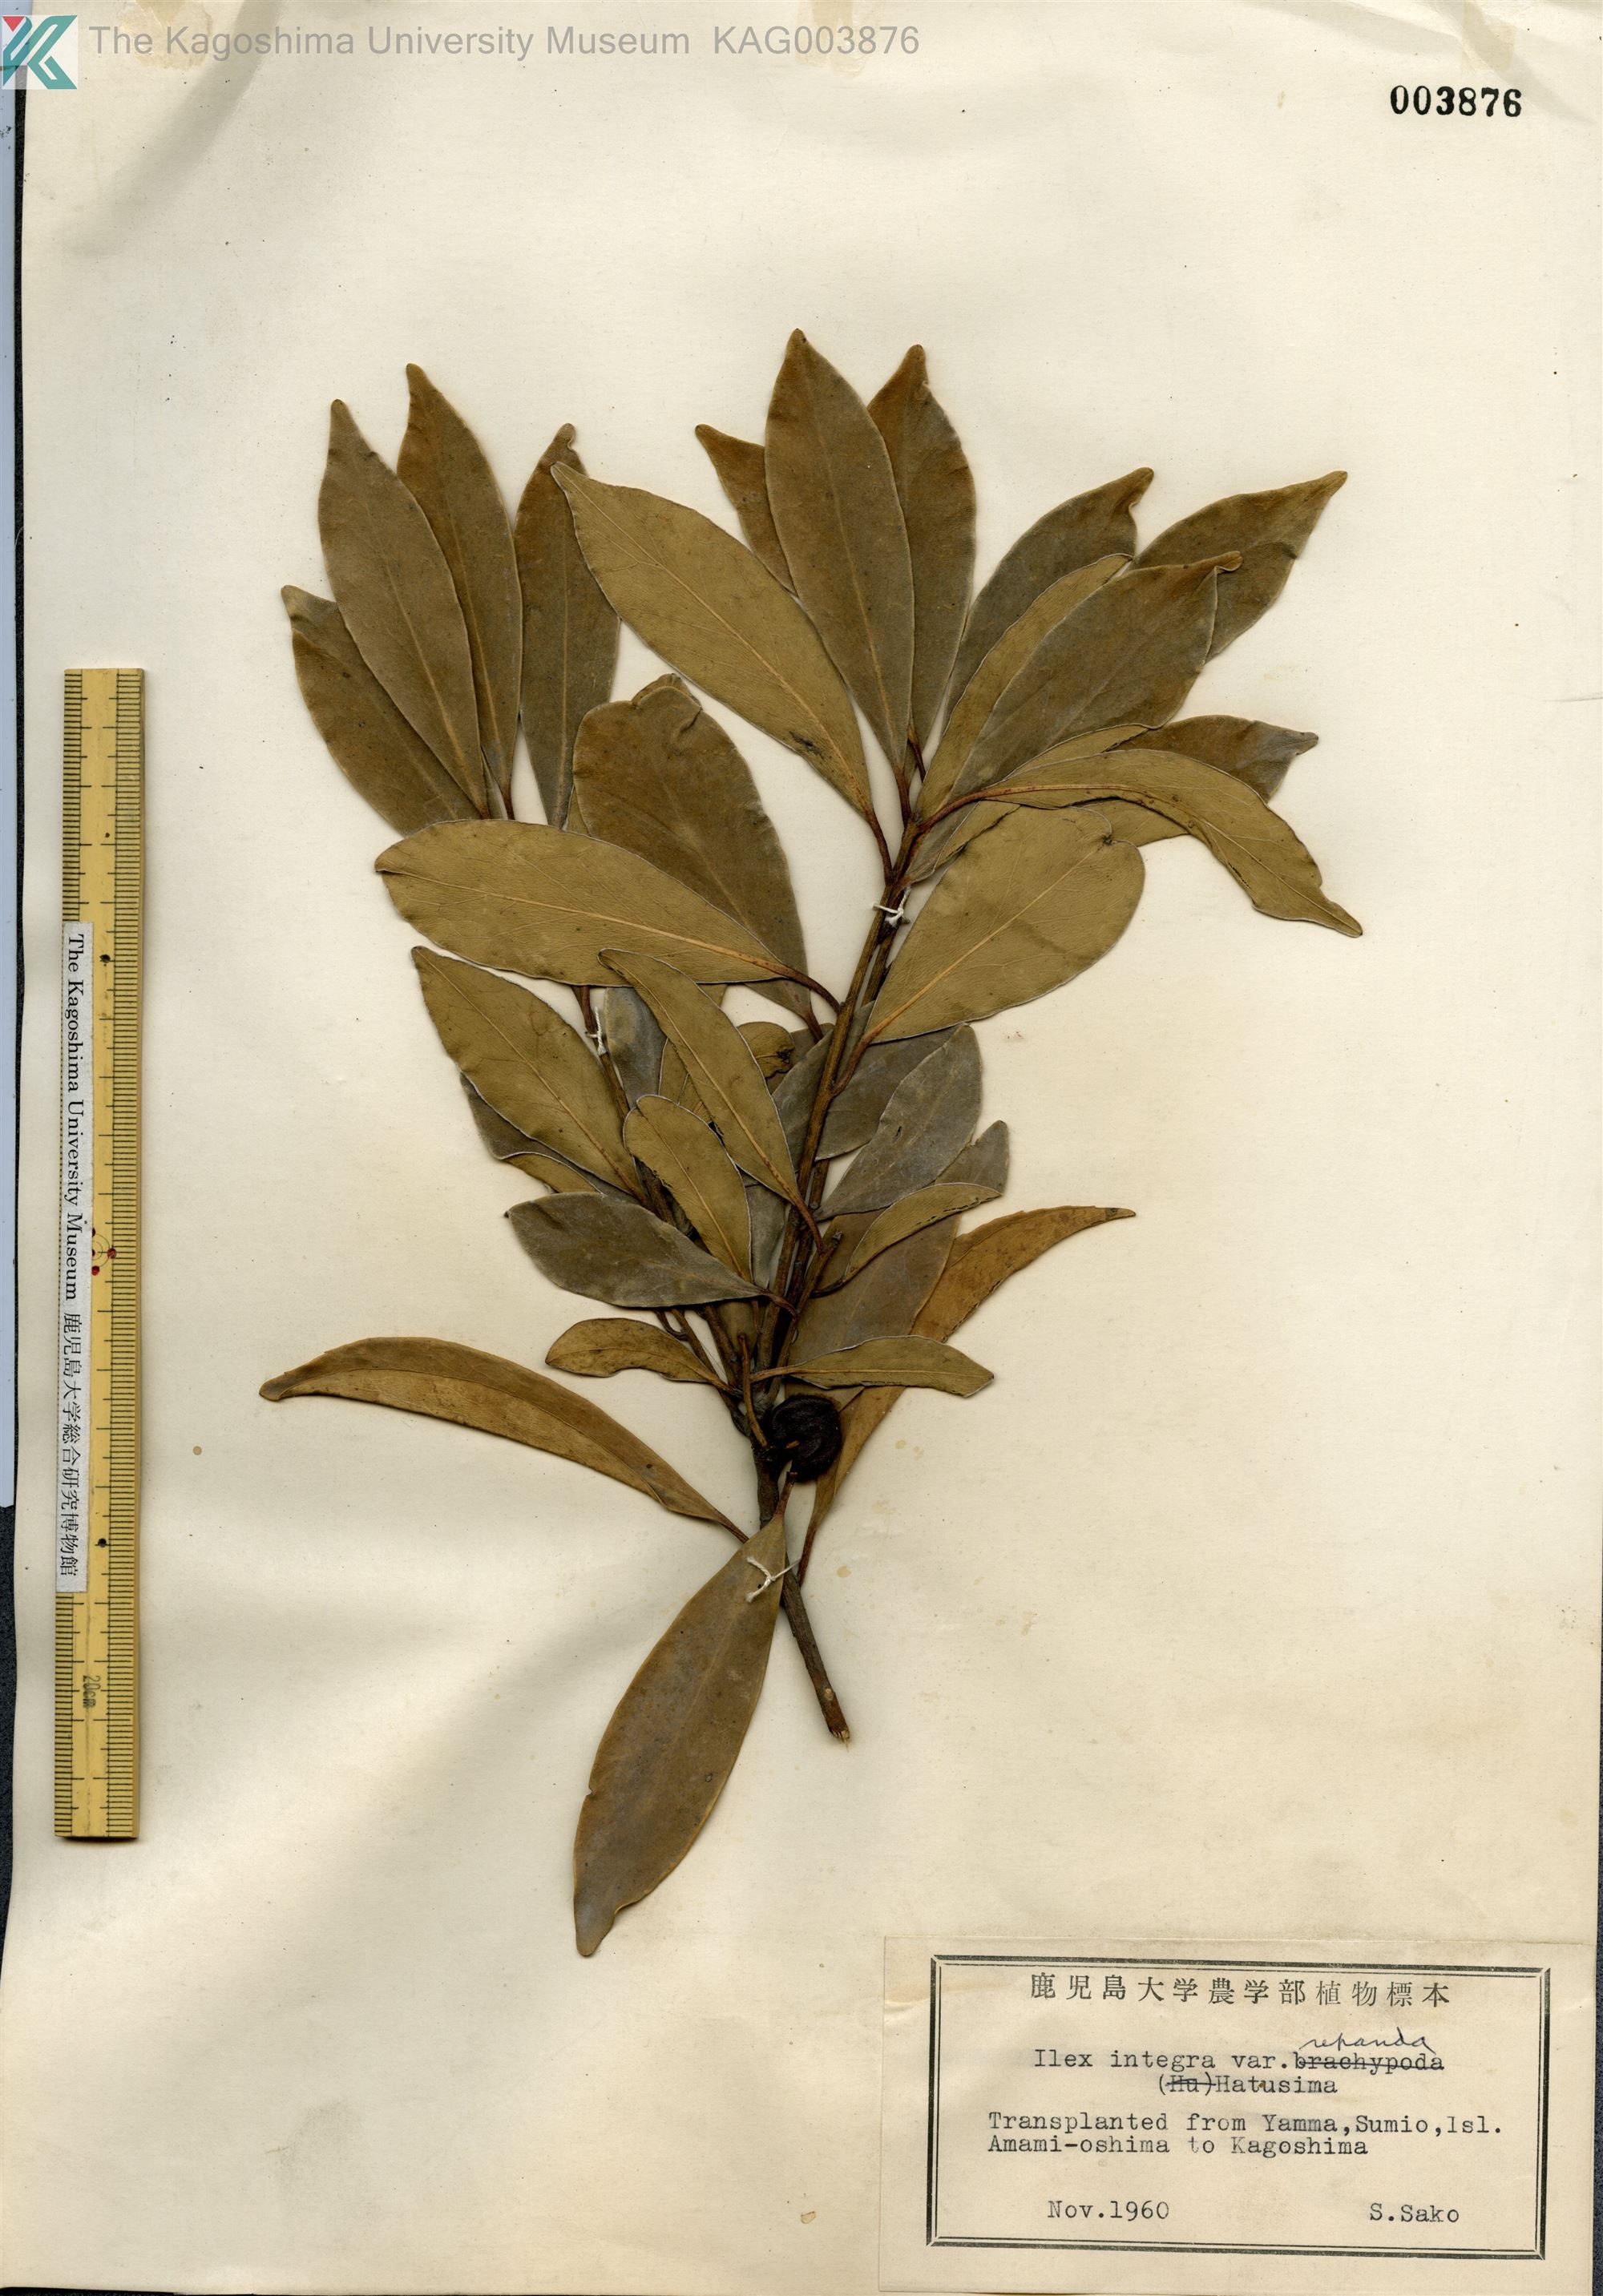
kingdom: Plantae
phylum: Tracheophyta
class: Magnoliopsida
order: Aquifoliales
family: Aquifoliaceae
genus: Ilex
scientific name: Ilex integra
